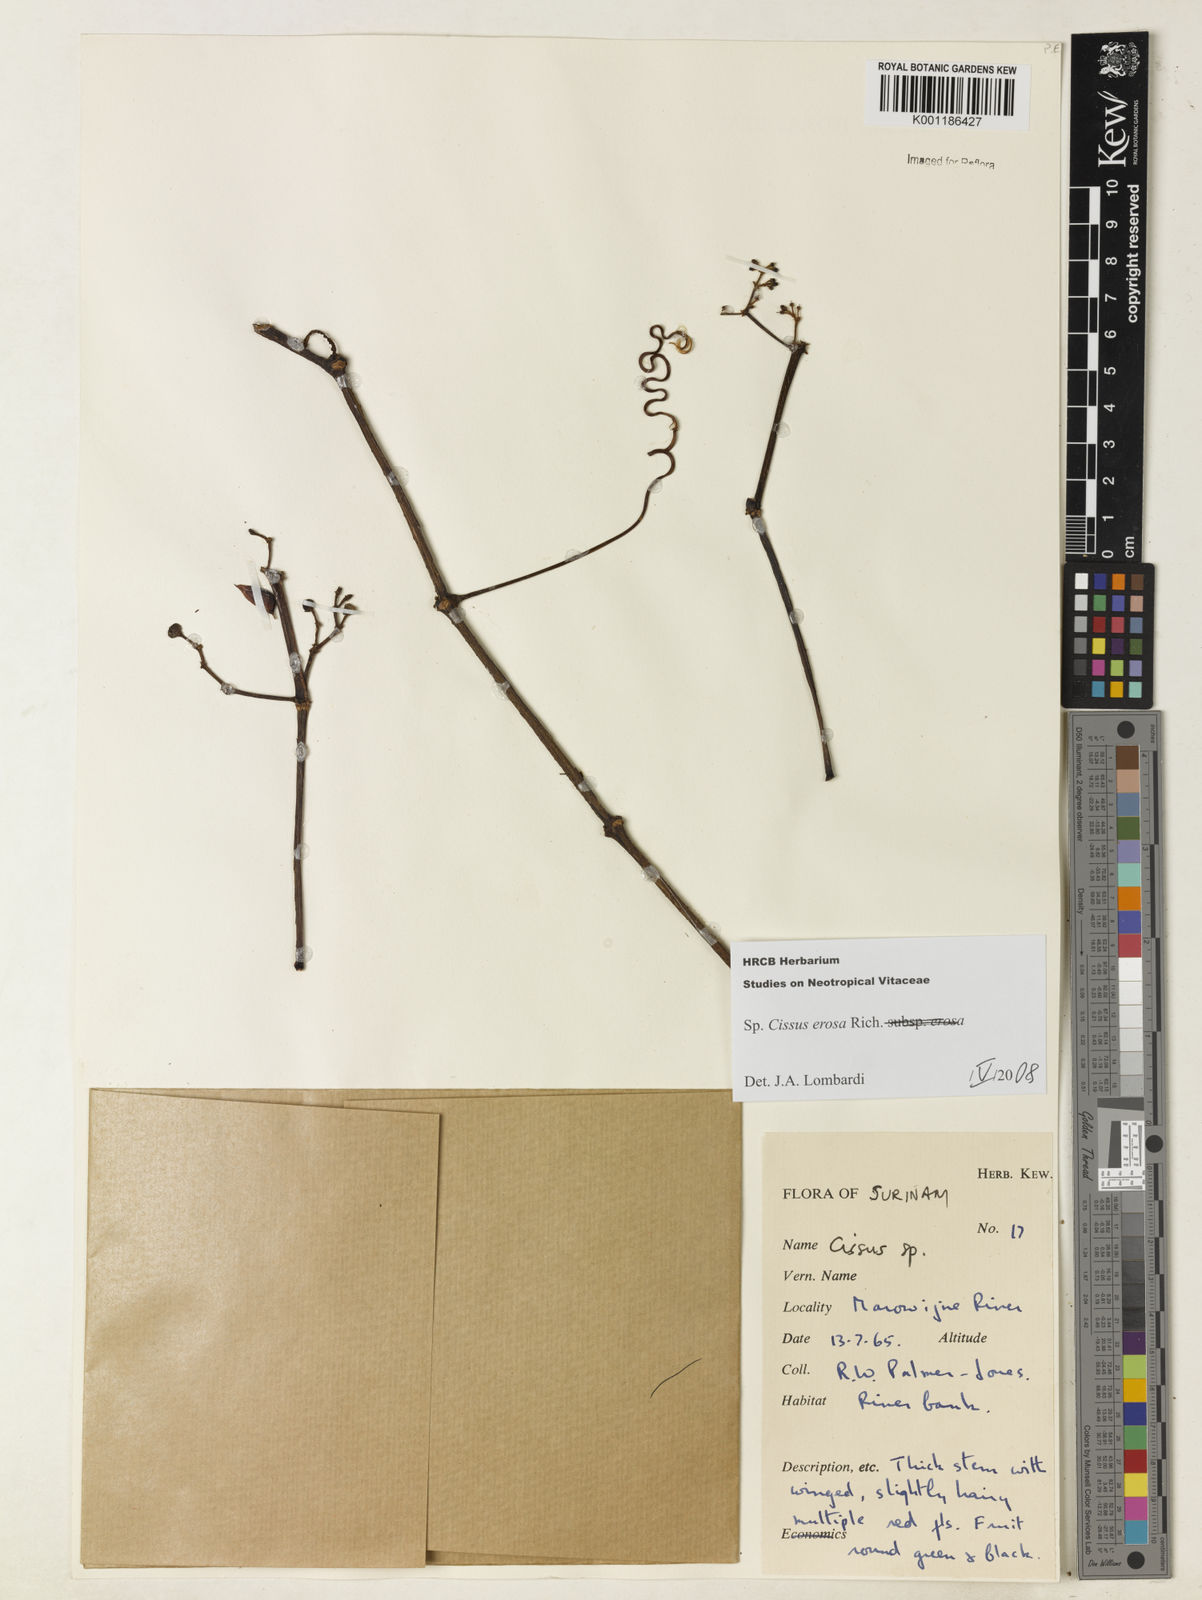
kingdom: Plantae
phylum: Tracheophyta
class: Magnoliopsida
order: Vitales
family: Vitaceae
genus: Cissus
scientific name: Cissus erosa
